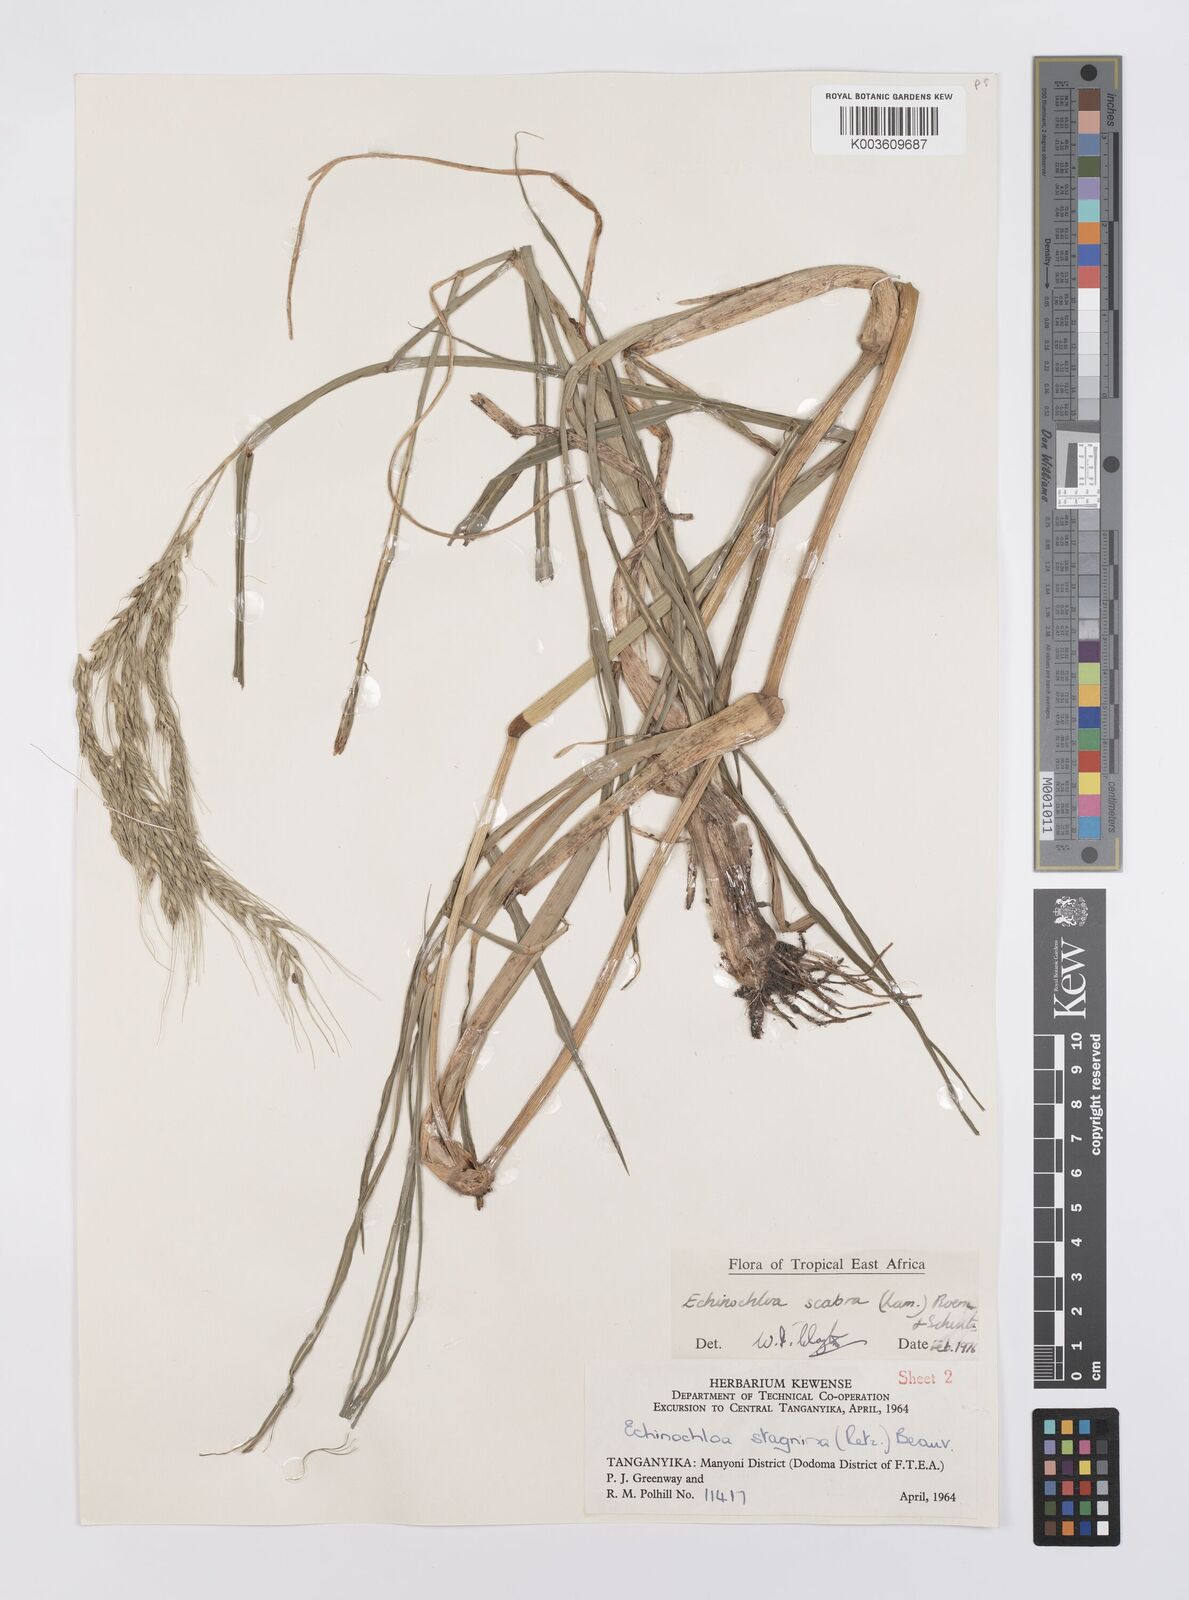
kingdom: Plantae
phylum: Tracheophyta
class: Liliopsida
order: Poales
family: Poaceae
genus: Echinochloa
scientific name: Echinochloa stagnina
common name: Burgu grass
